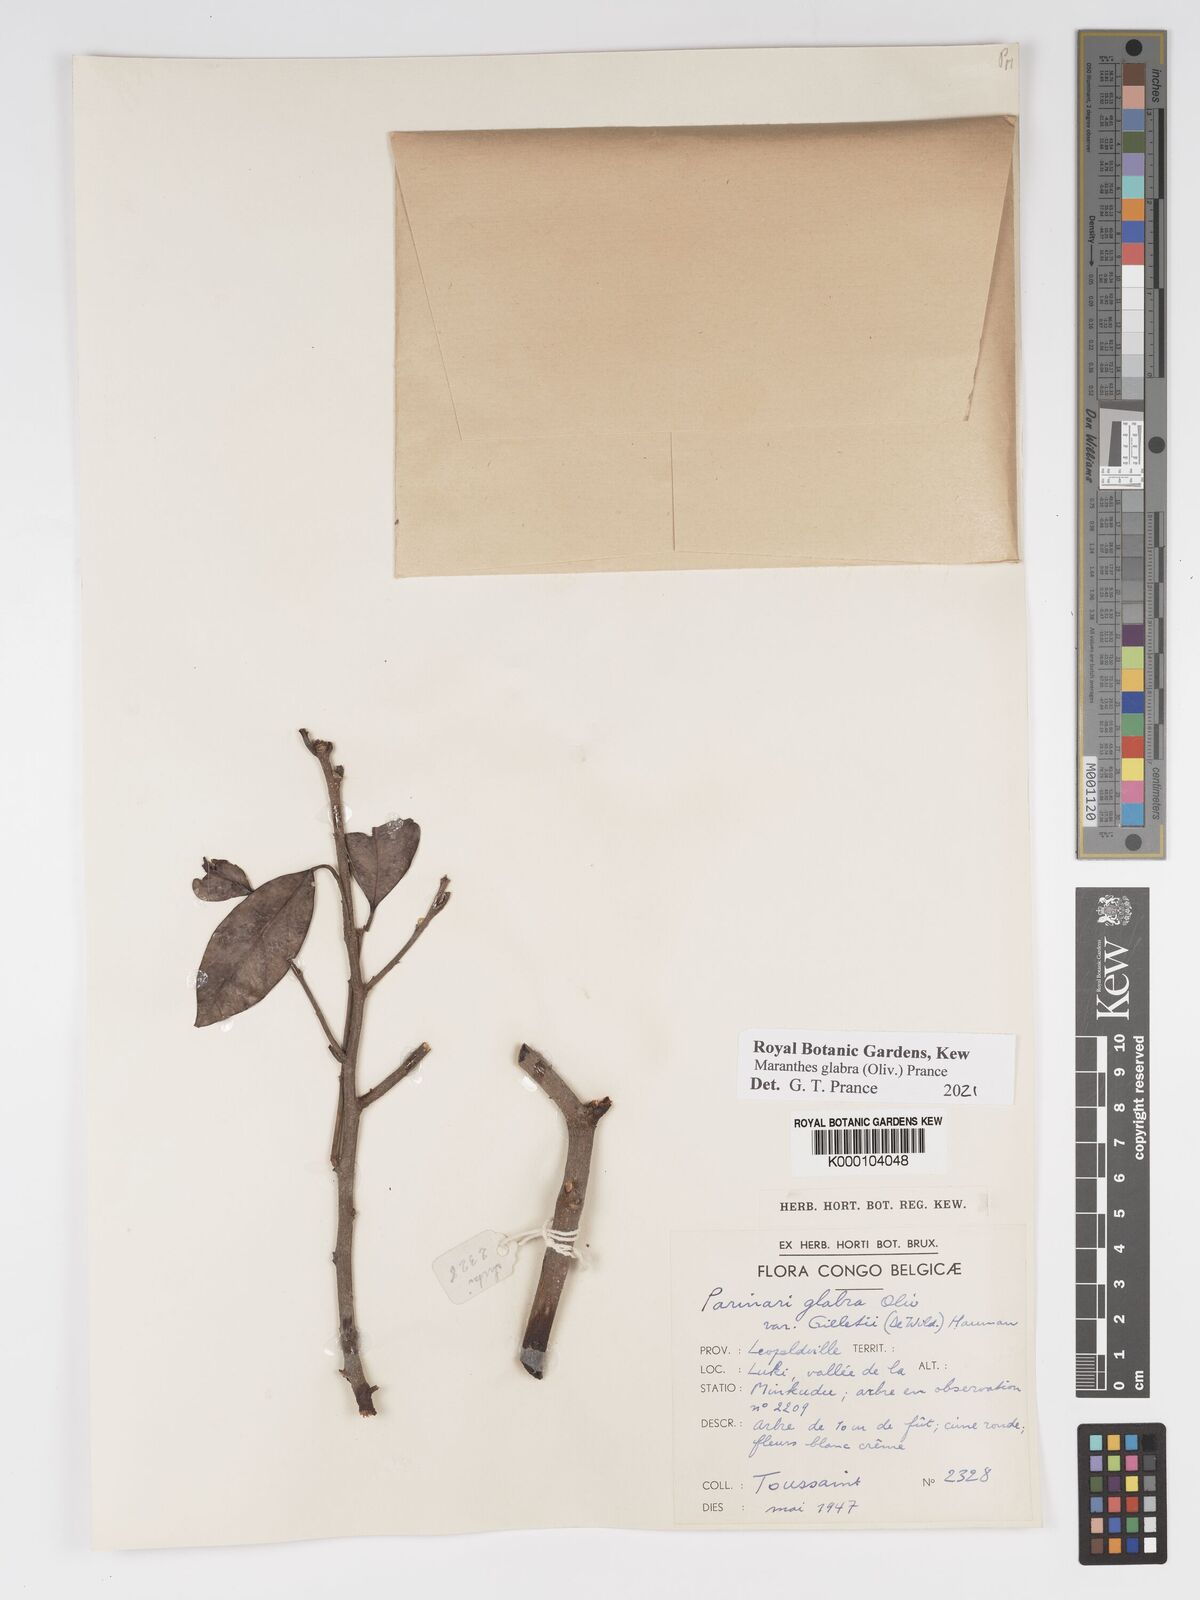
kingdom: Plantae
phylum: Tracheophyta
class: Magnoliopsida
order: Malpighiales
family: Chrysobalanaceae
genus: Maranthes
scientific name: Maranthes glabra
